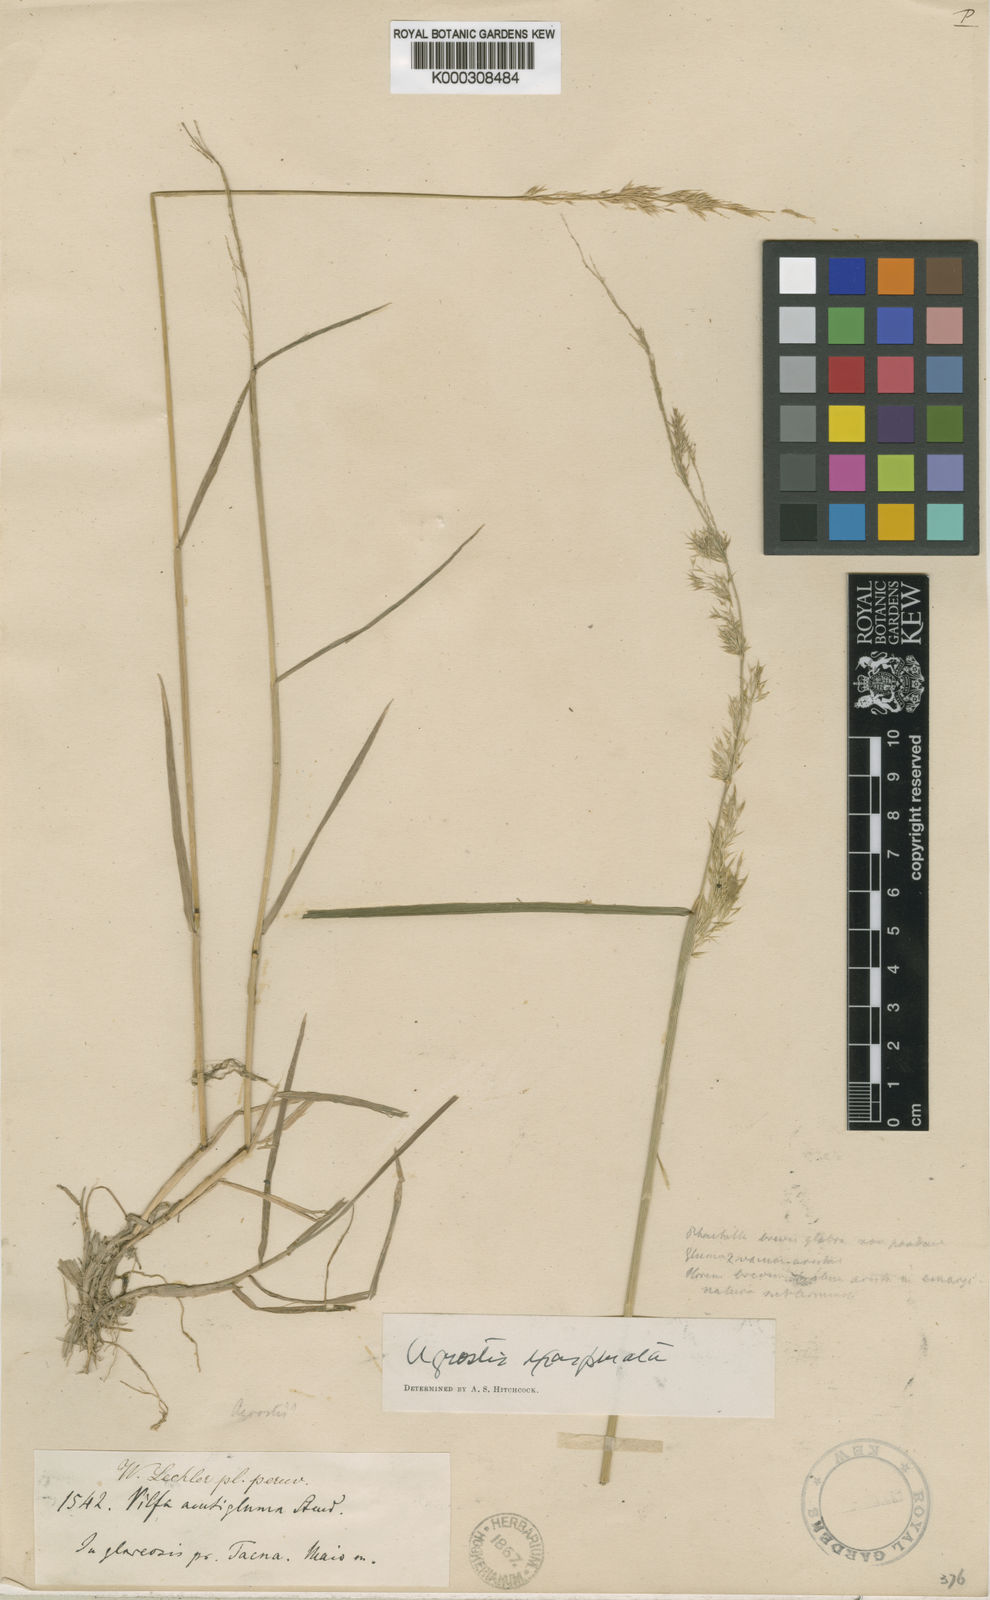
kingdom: Plantae
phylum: Tracheophyta
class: Liliopsida
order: Poales
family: Poaceae
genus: Polypogon
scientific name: Polypogon elongatus
